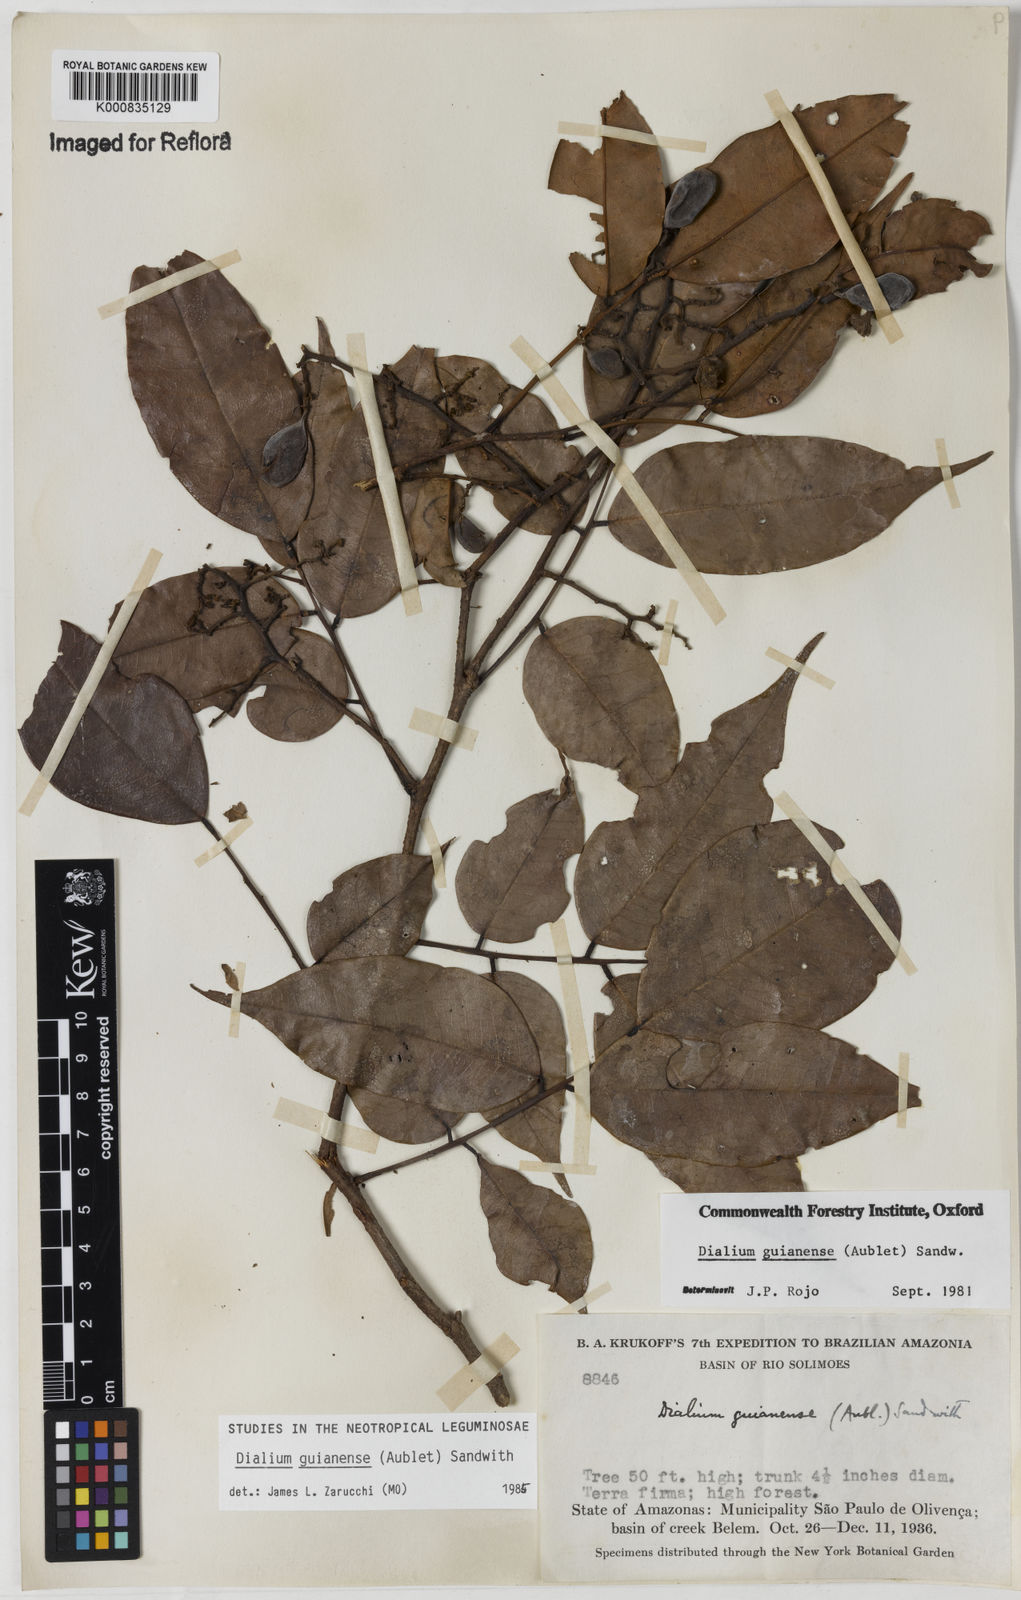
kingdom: Plantae
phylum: Tracheophyta
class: Magnoliopsida
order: Fabales
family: Fabaceae
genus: Dialium
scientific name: Dialium guianense
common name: Ironwood
